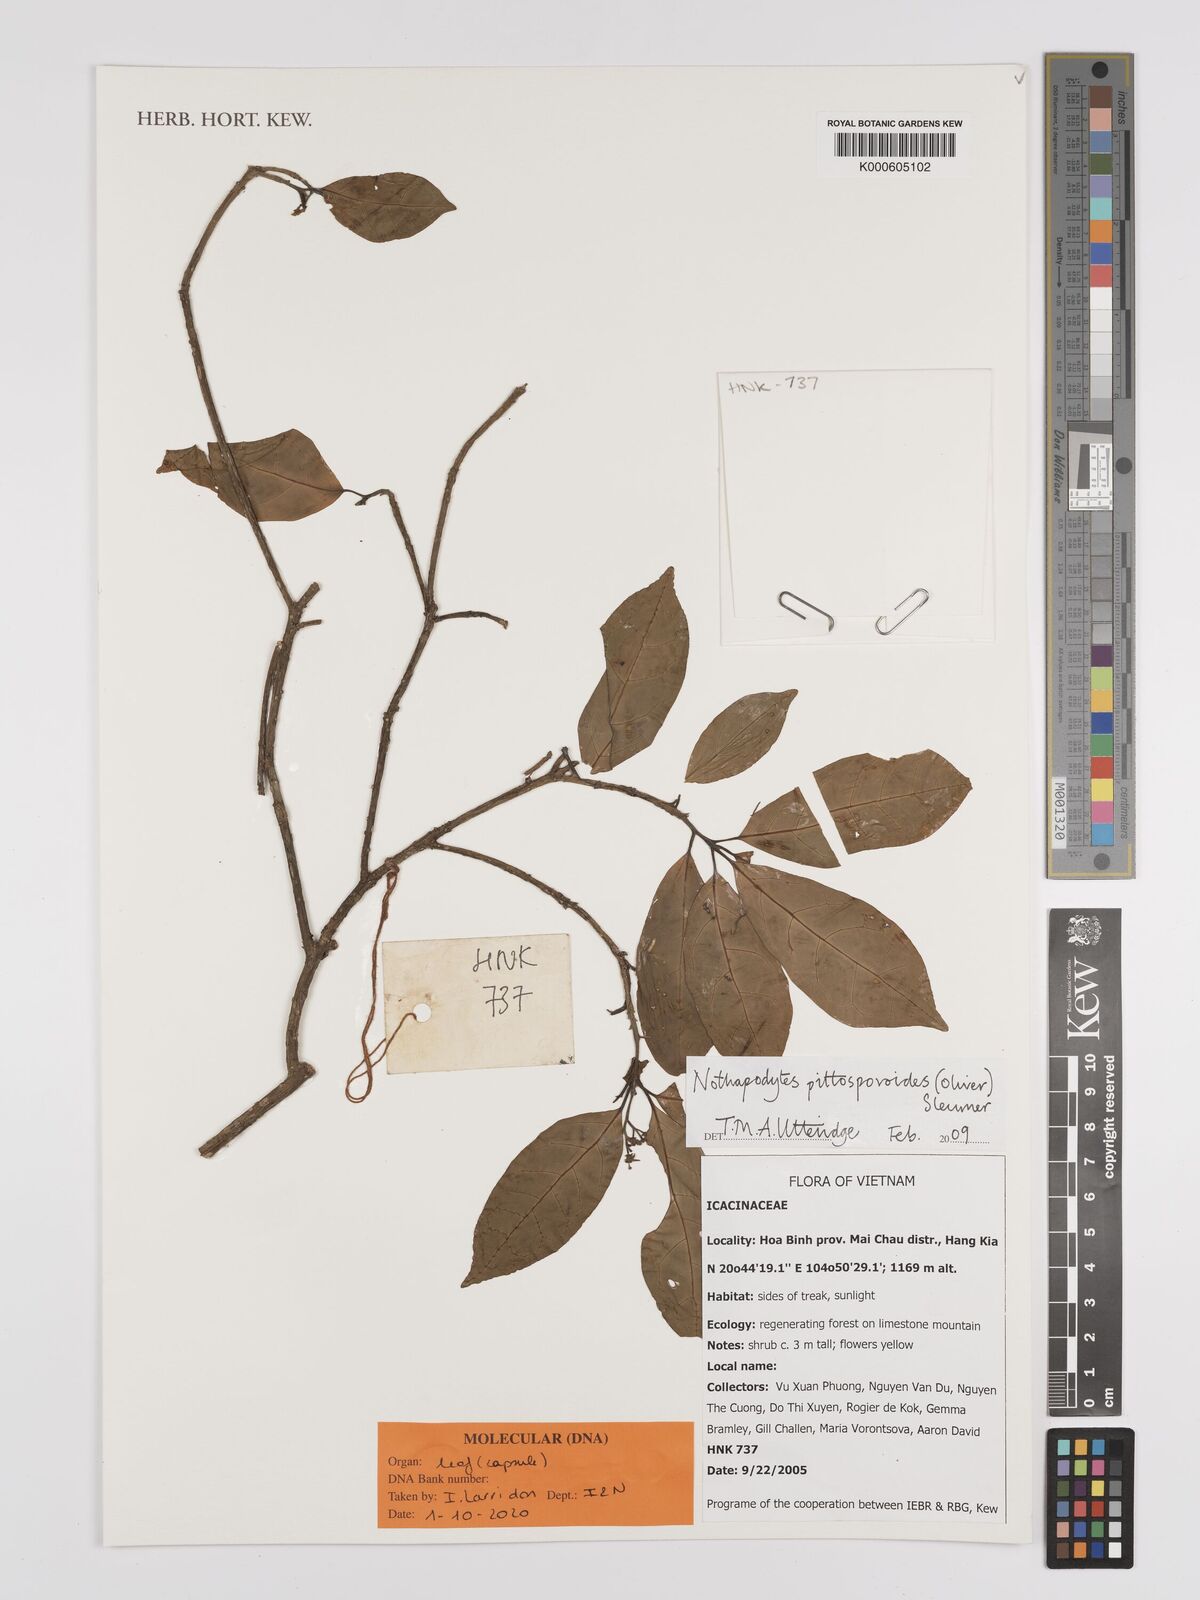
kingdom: Plantae
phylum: Tracheophyta
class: Magnoliopsida
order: Icacinales
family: Icacinaceae
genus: Nothapodytes
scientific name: Nothapodytes pittosporoides
